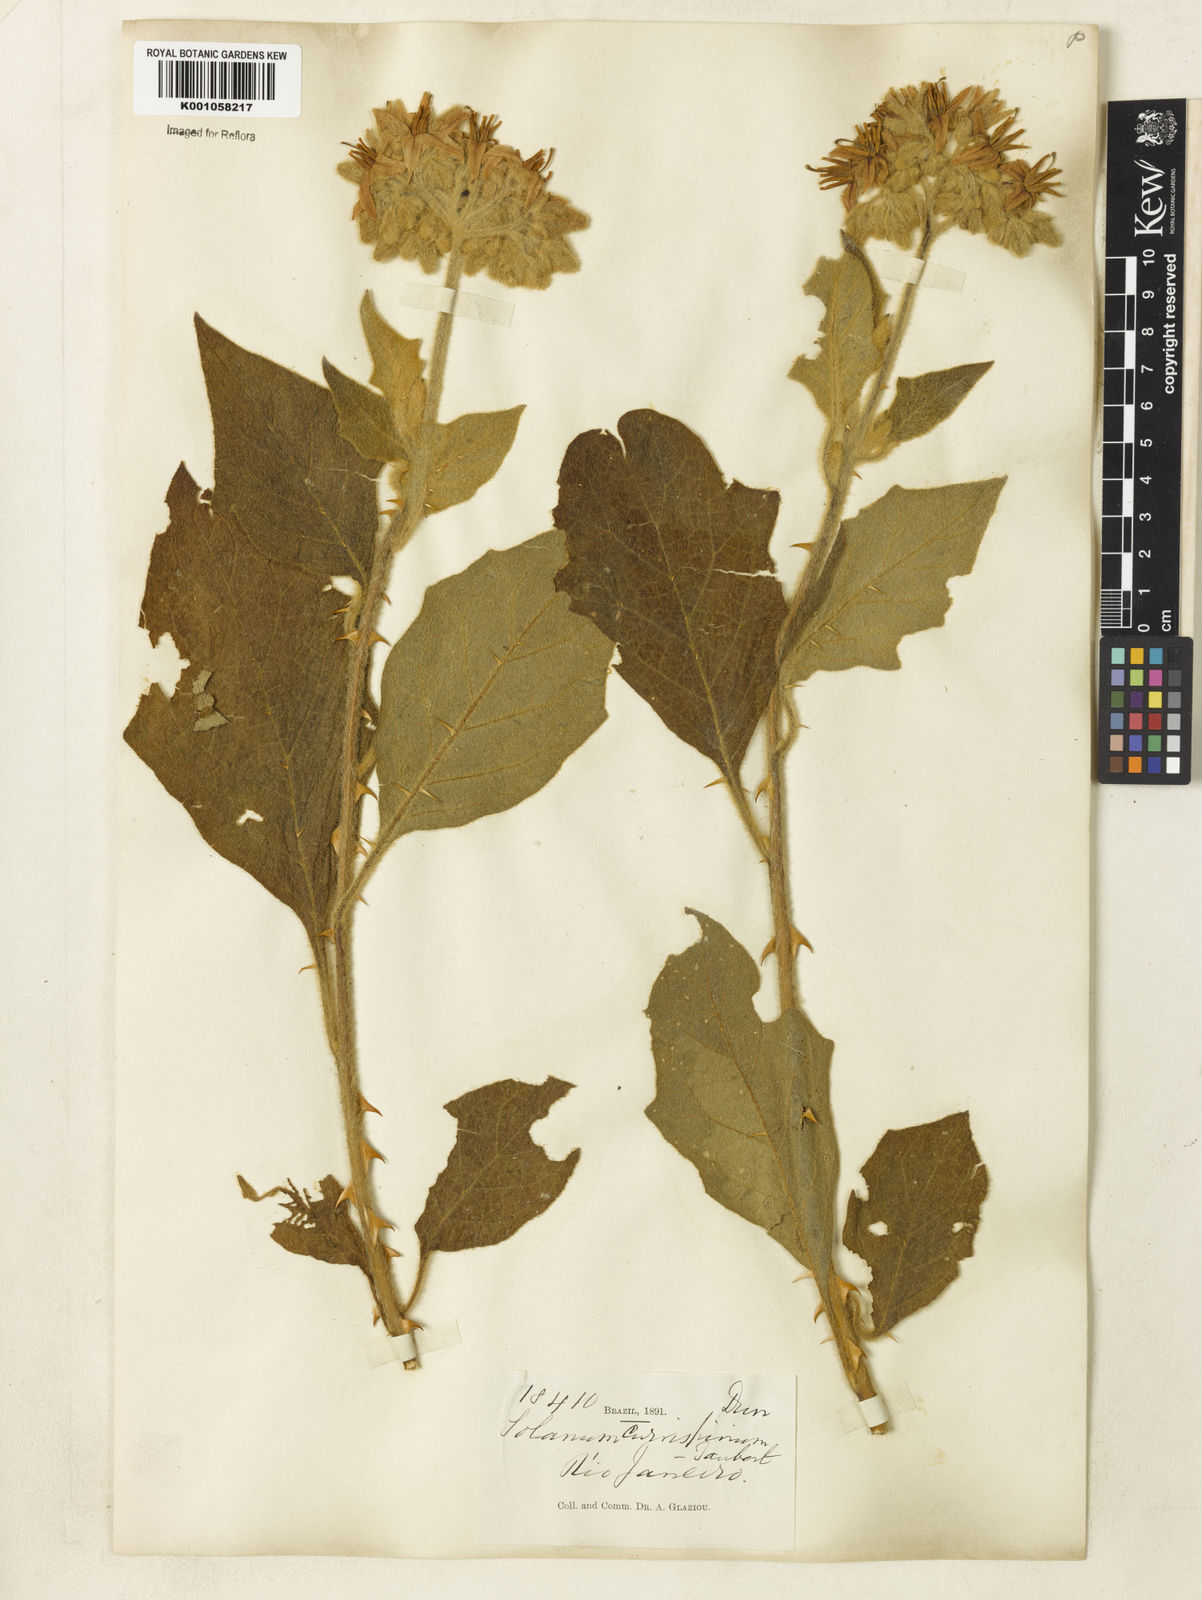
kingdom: Plantae
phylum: Tracheophyta
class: Magnoliopsida
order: Solanales
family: Solanaceae
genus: Solanum
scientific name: Solanum
